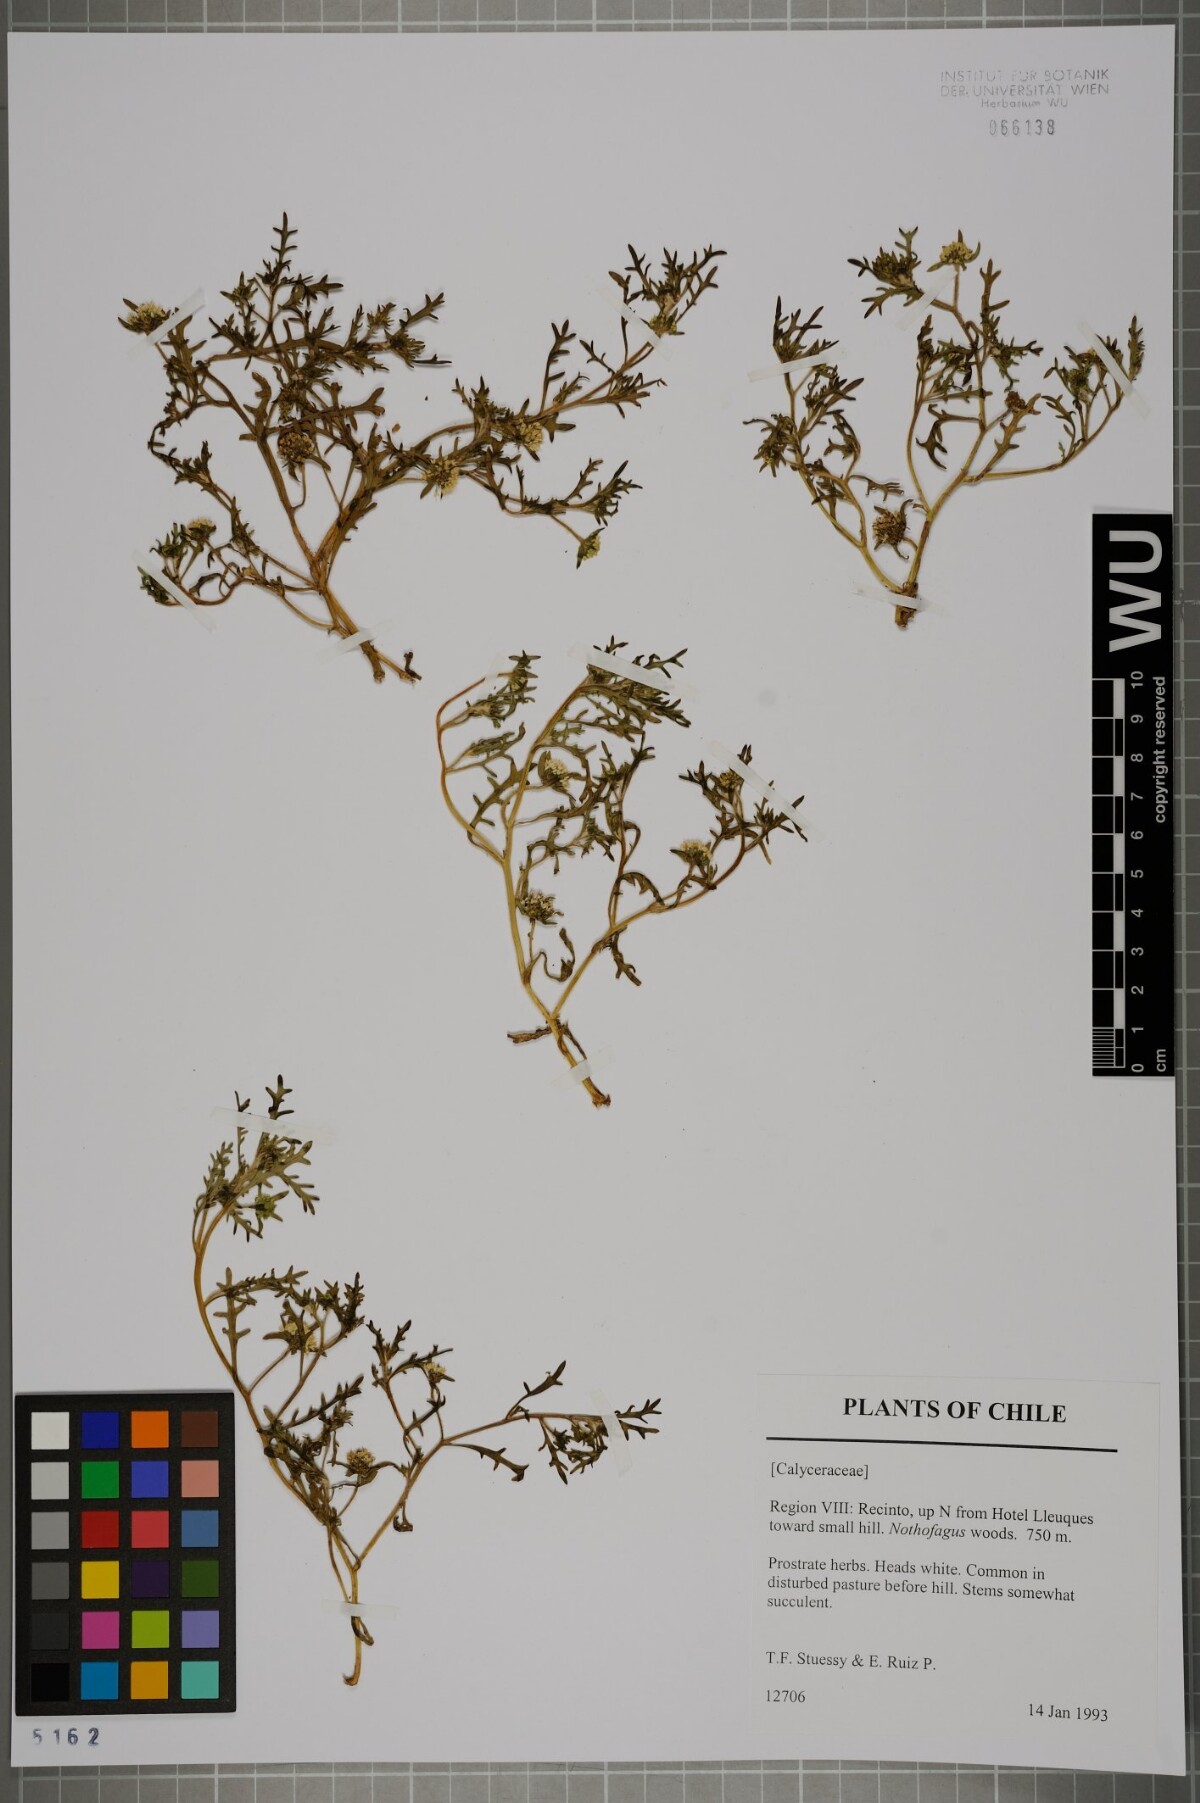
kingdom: Plantae
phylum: Tracheophyta
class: Magnoliopsida
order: Asterales
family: Calyceraceae
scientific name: Calyceraceae
